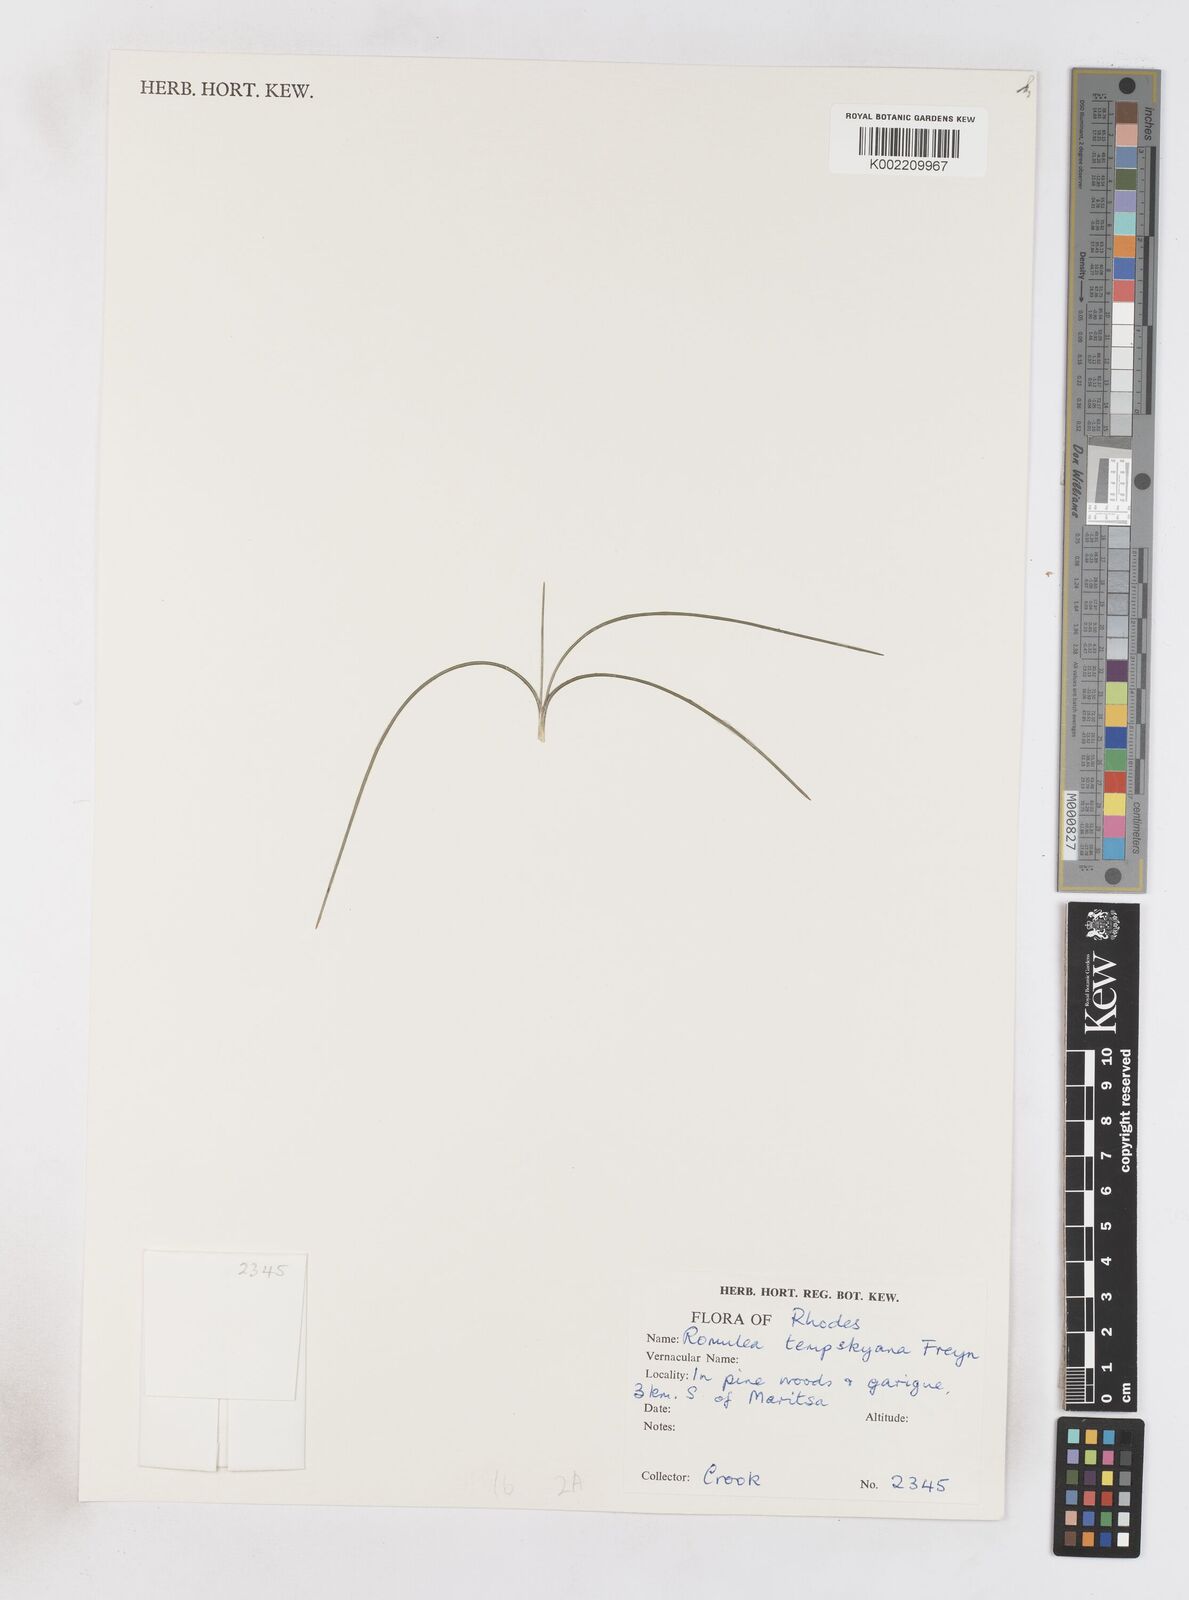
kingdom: Plantae
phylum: Tracheophyta
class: Liliopsida
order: Asparagales
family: Iridaceae
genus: Romulea
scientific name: Romulea tempskyana
